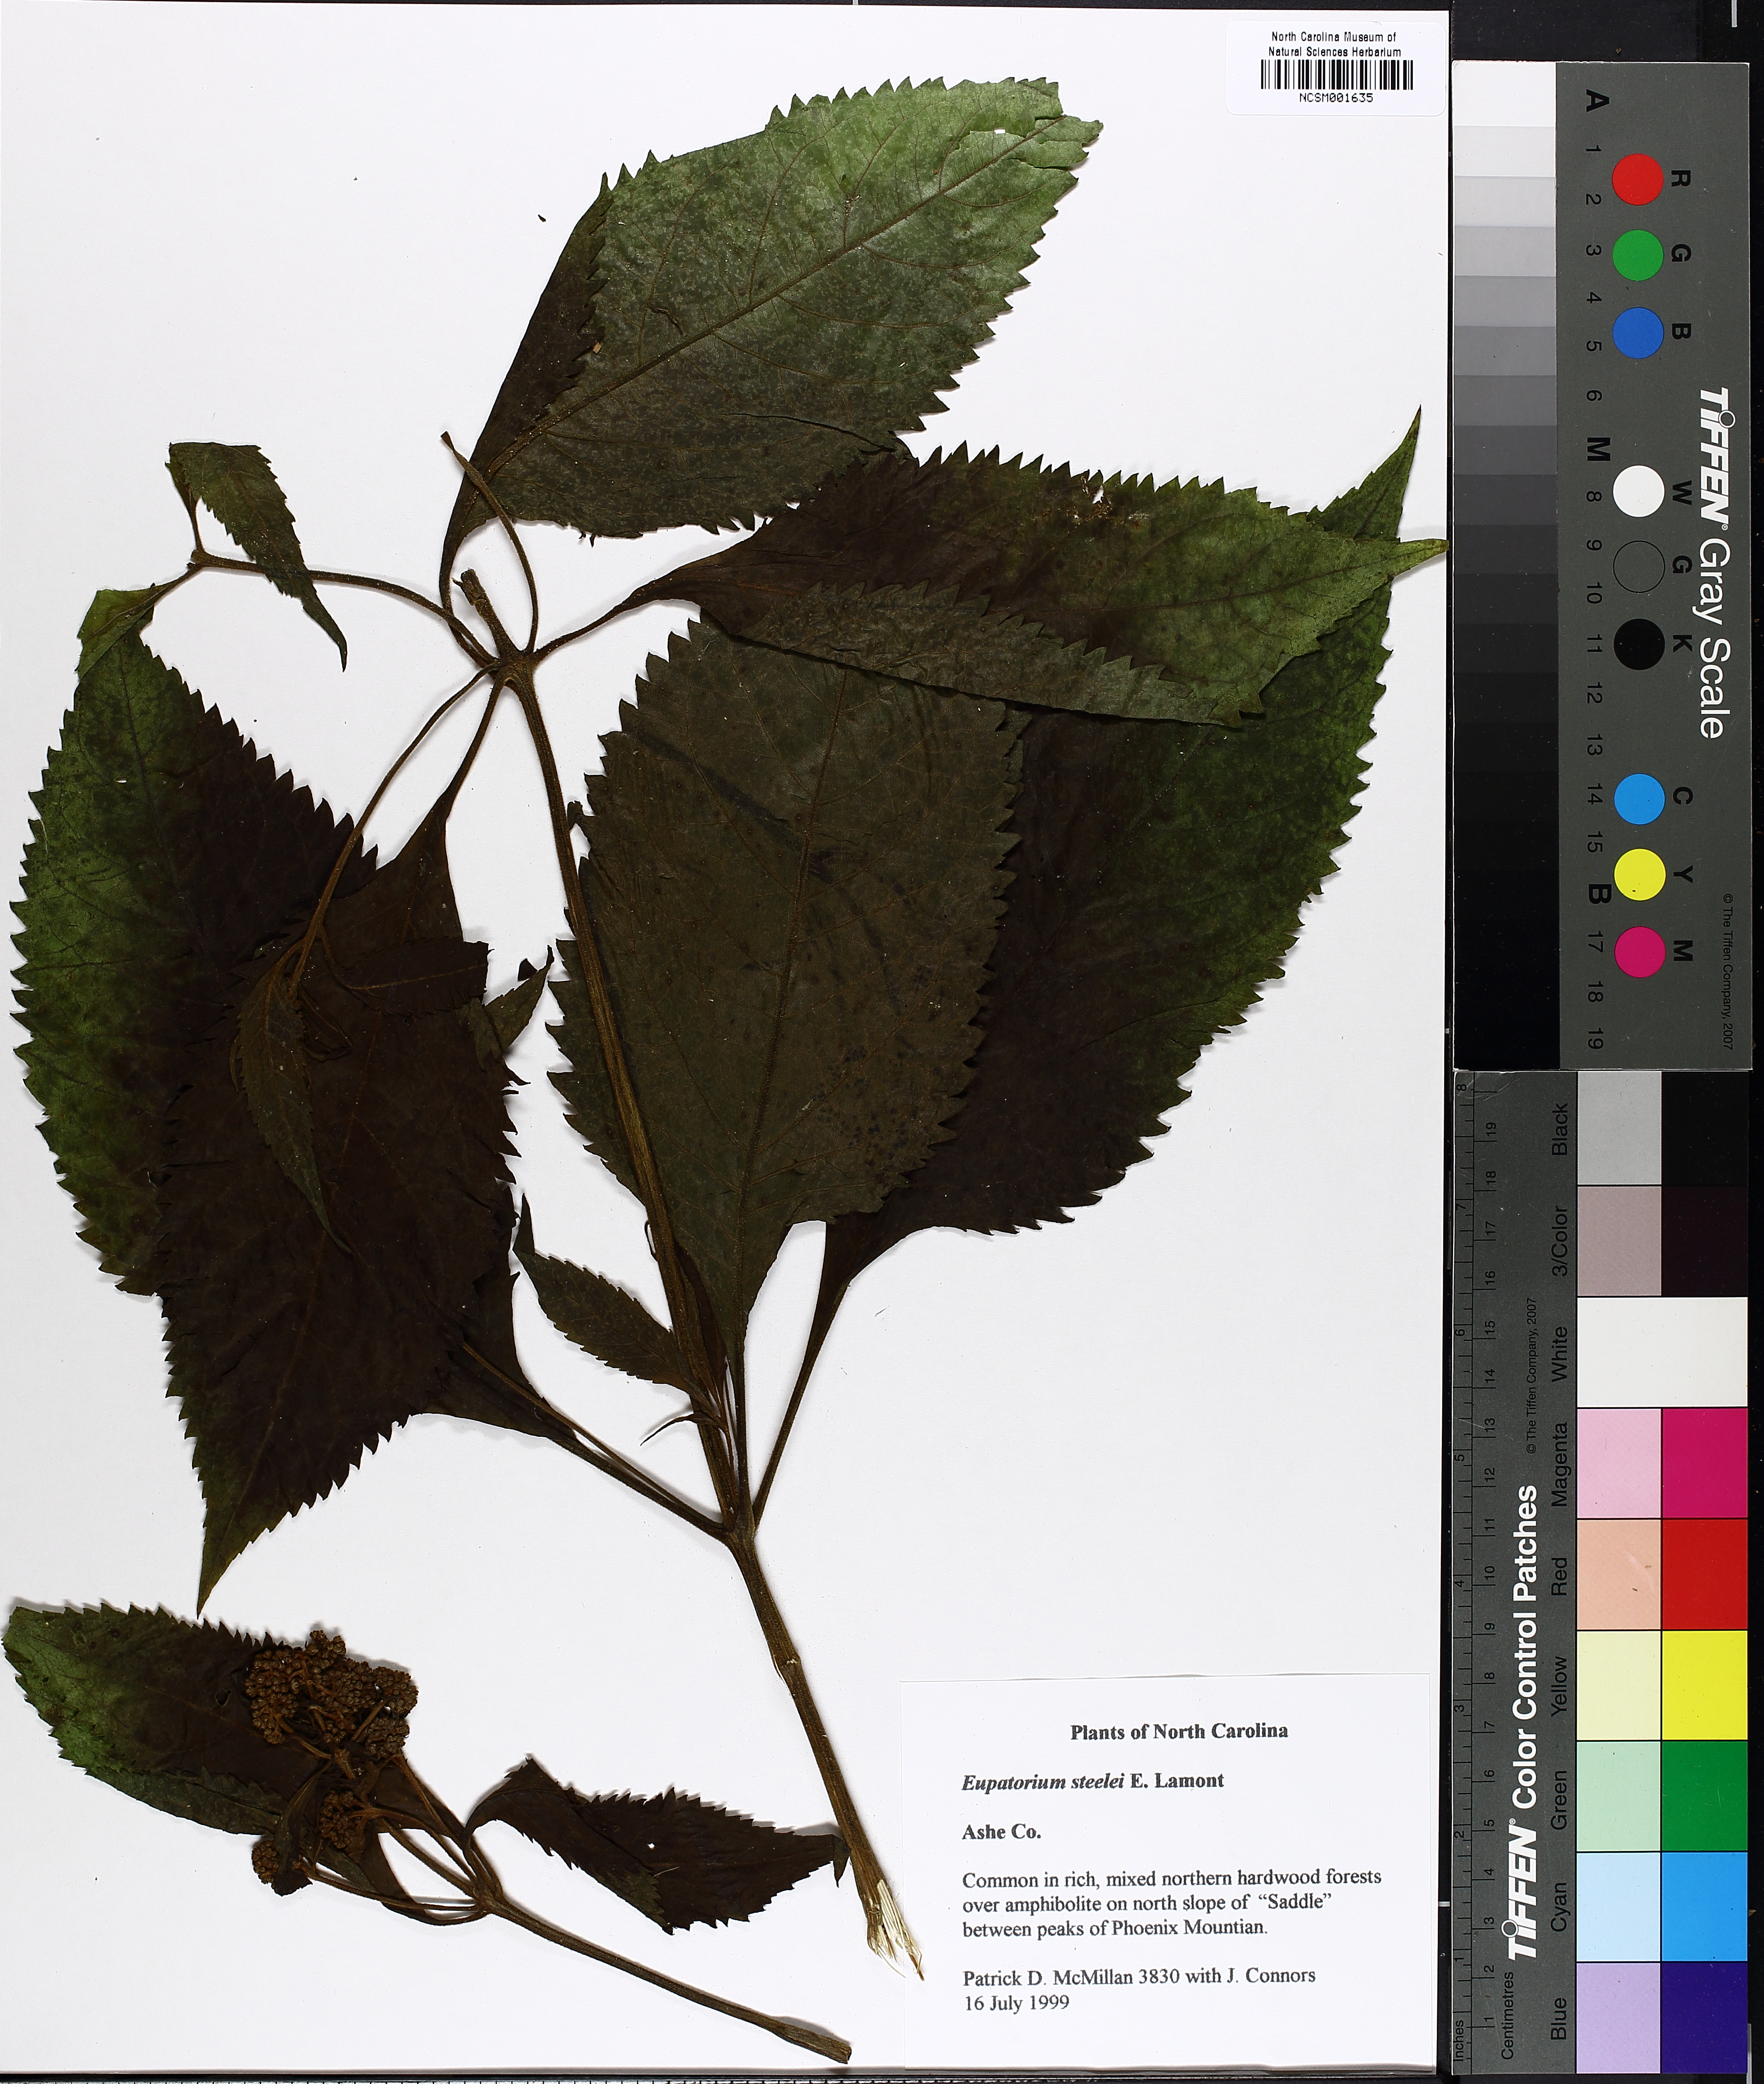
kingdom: Plantae
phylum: Tracheophyta
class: Magnoliopsida
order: Asterales
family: Asteraceae
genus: Eutrochium
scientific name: Eutrochium steelei
